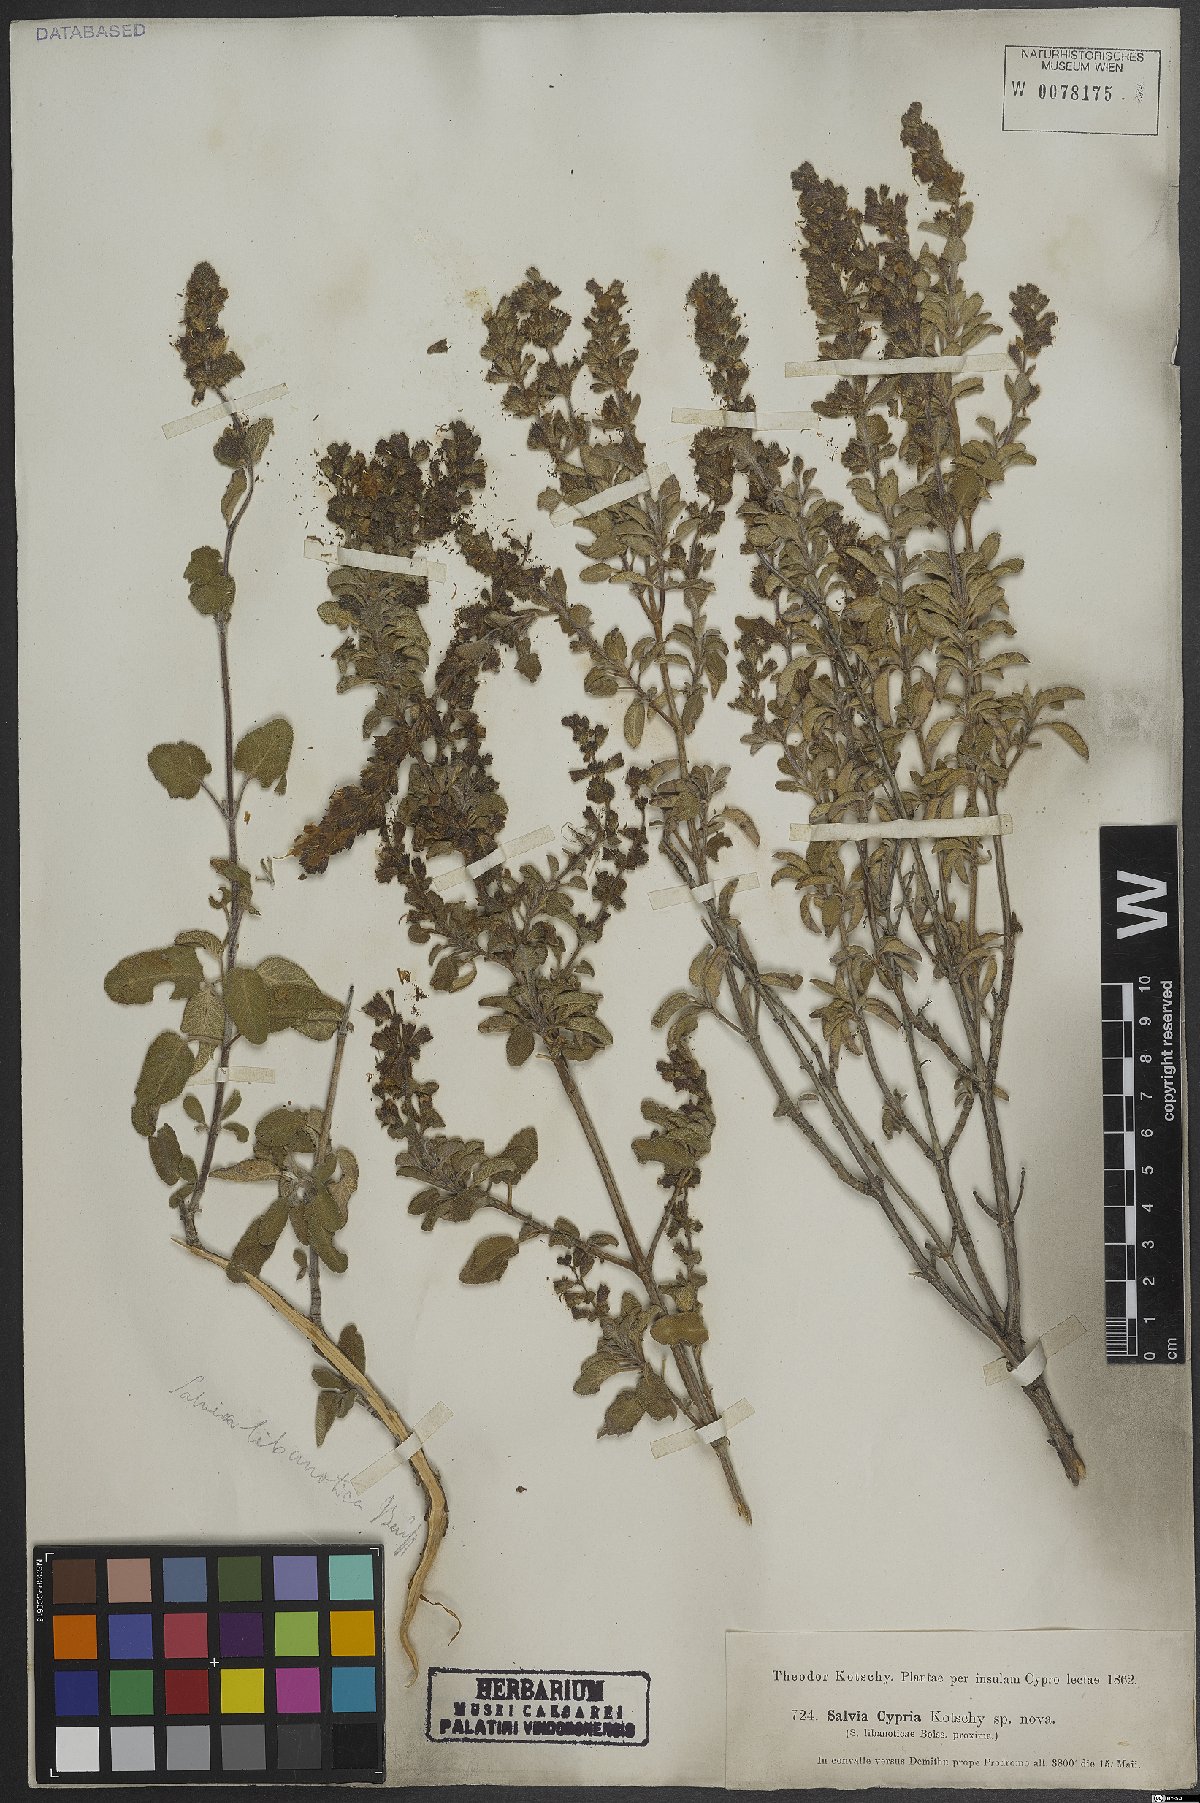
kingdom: Plantae
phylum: Tracheophyta
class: Magnoliopsida
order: Lamiales
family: Lamiaceae
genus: Salvia
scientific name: Salvia fruticosa
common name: Greek sage
